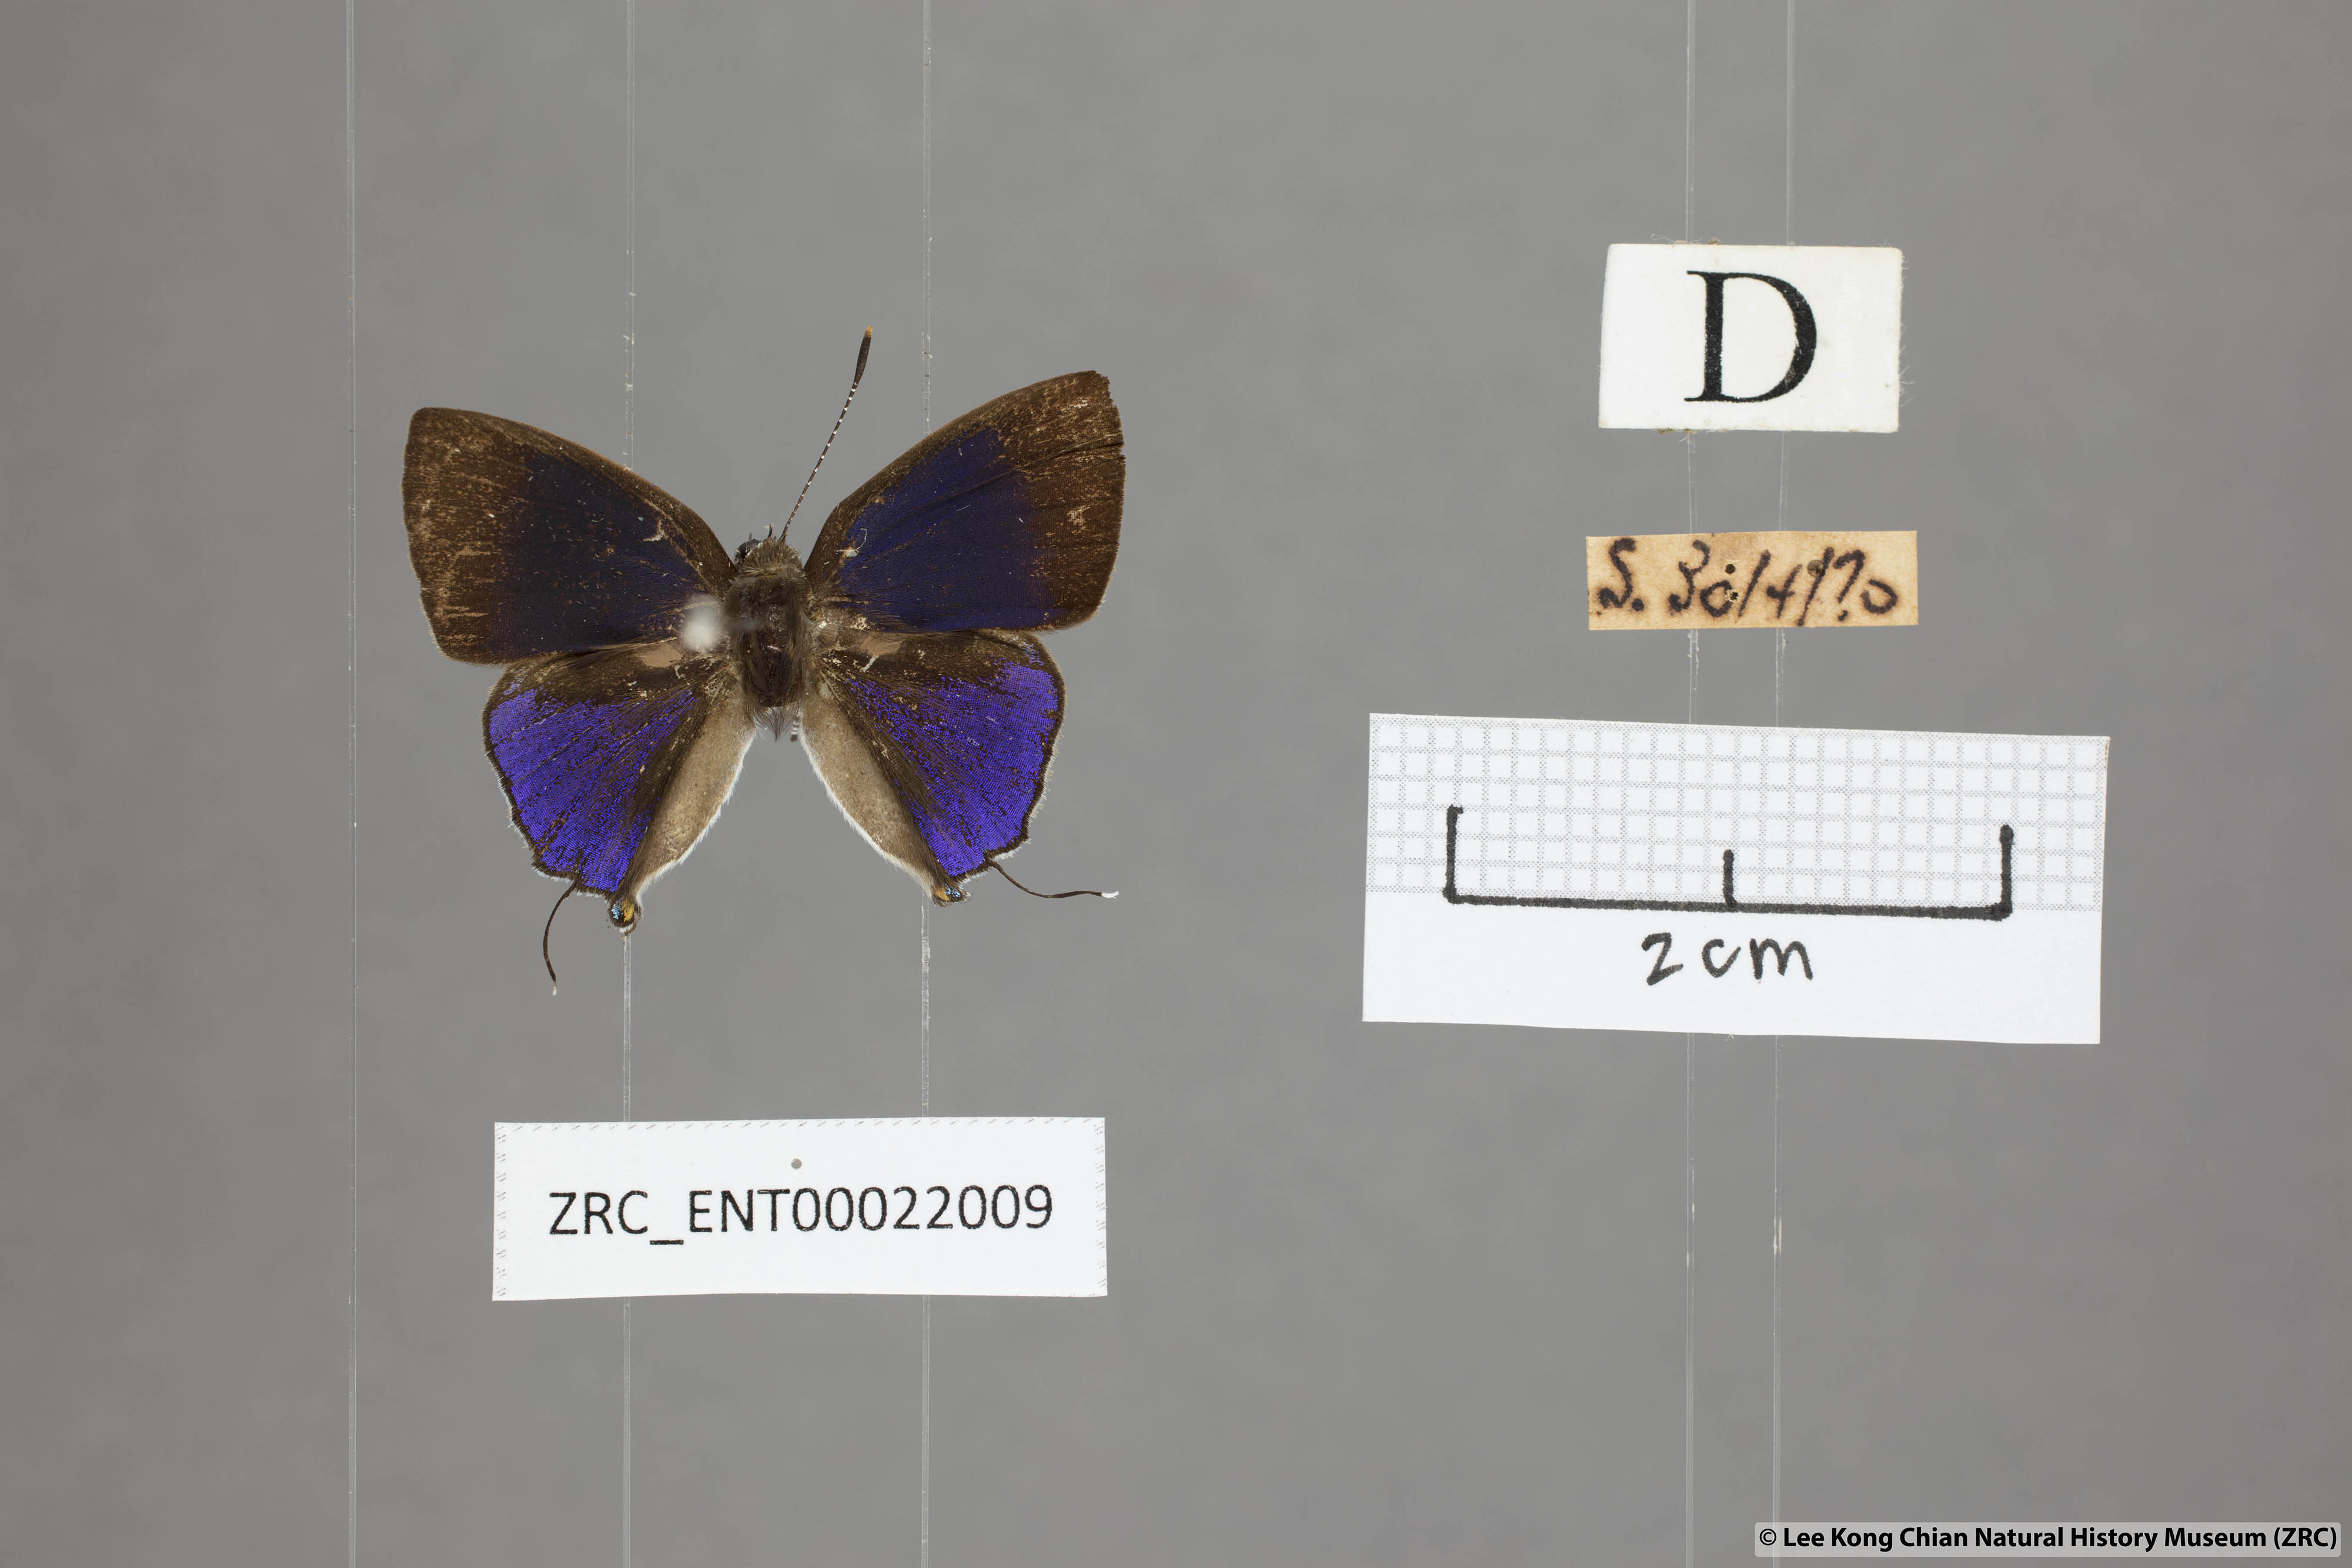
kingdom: Animalia
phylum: Arthropoda
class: Insecta
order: Lepidoptera
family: Lycaenidae
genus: Sinthusa
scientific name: Sinthusa nasaka
